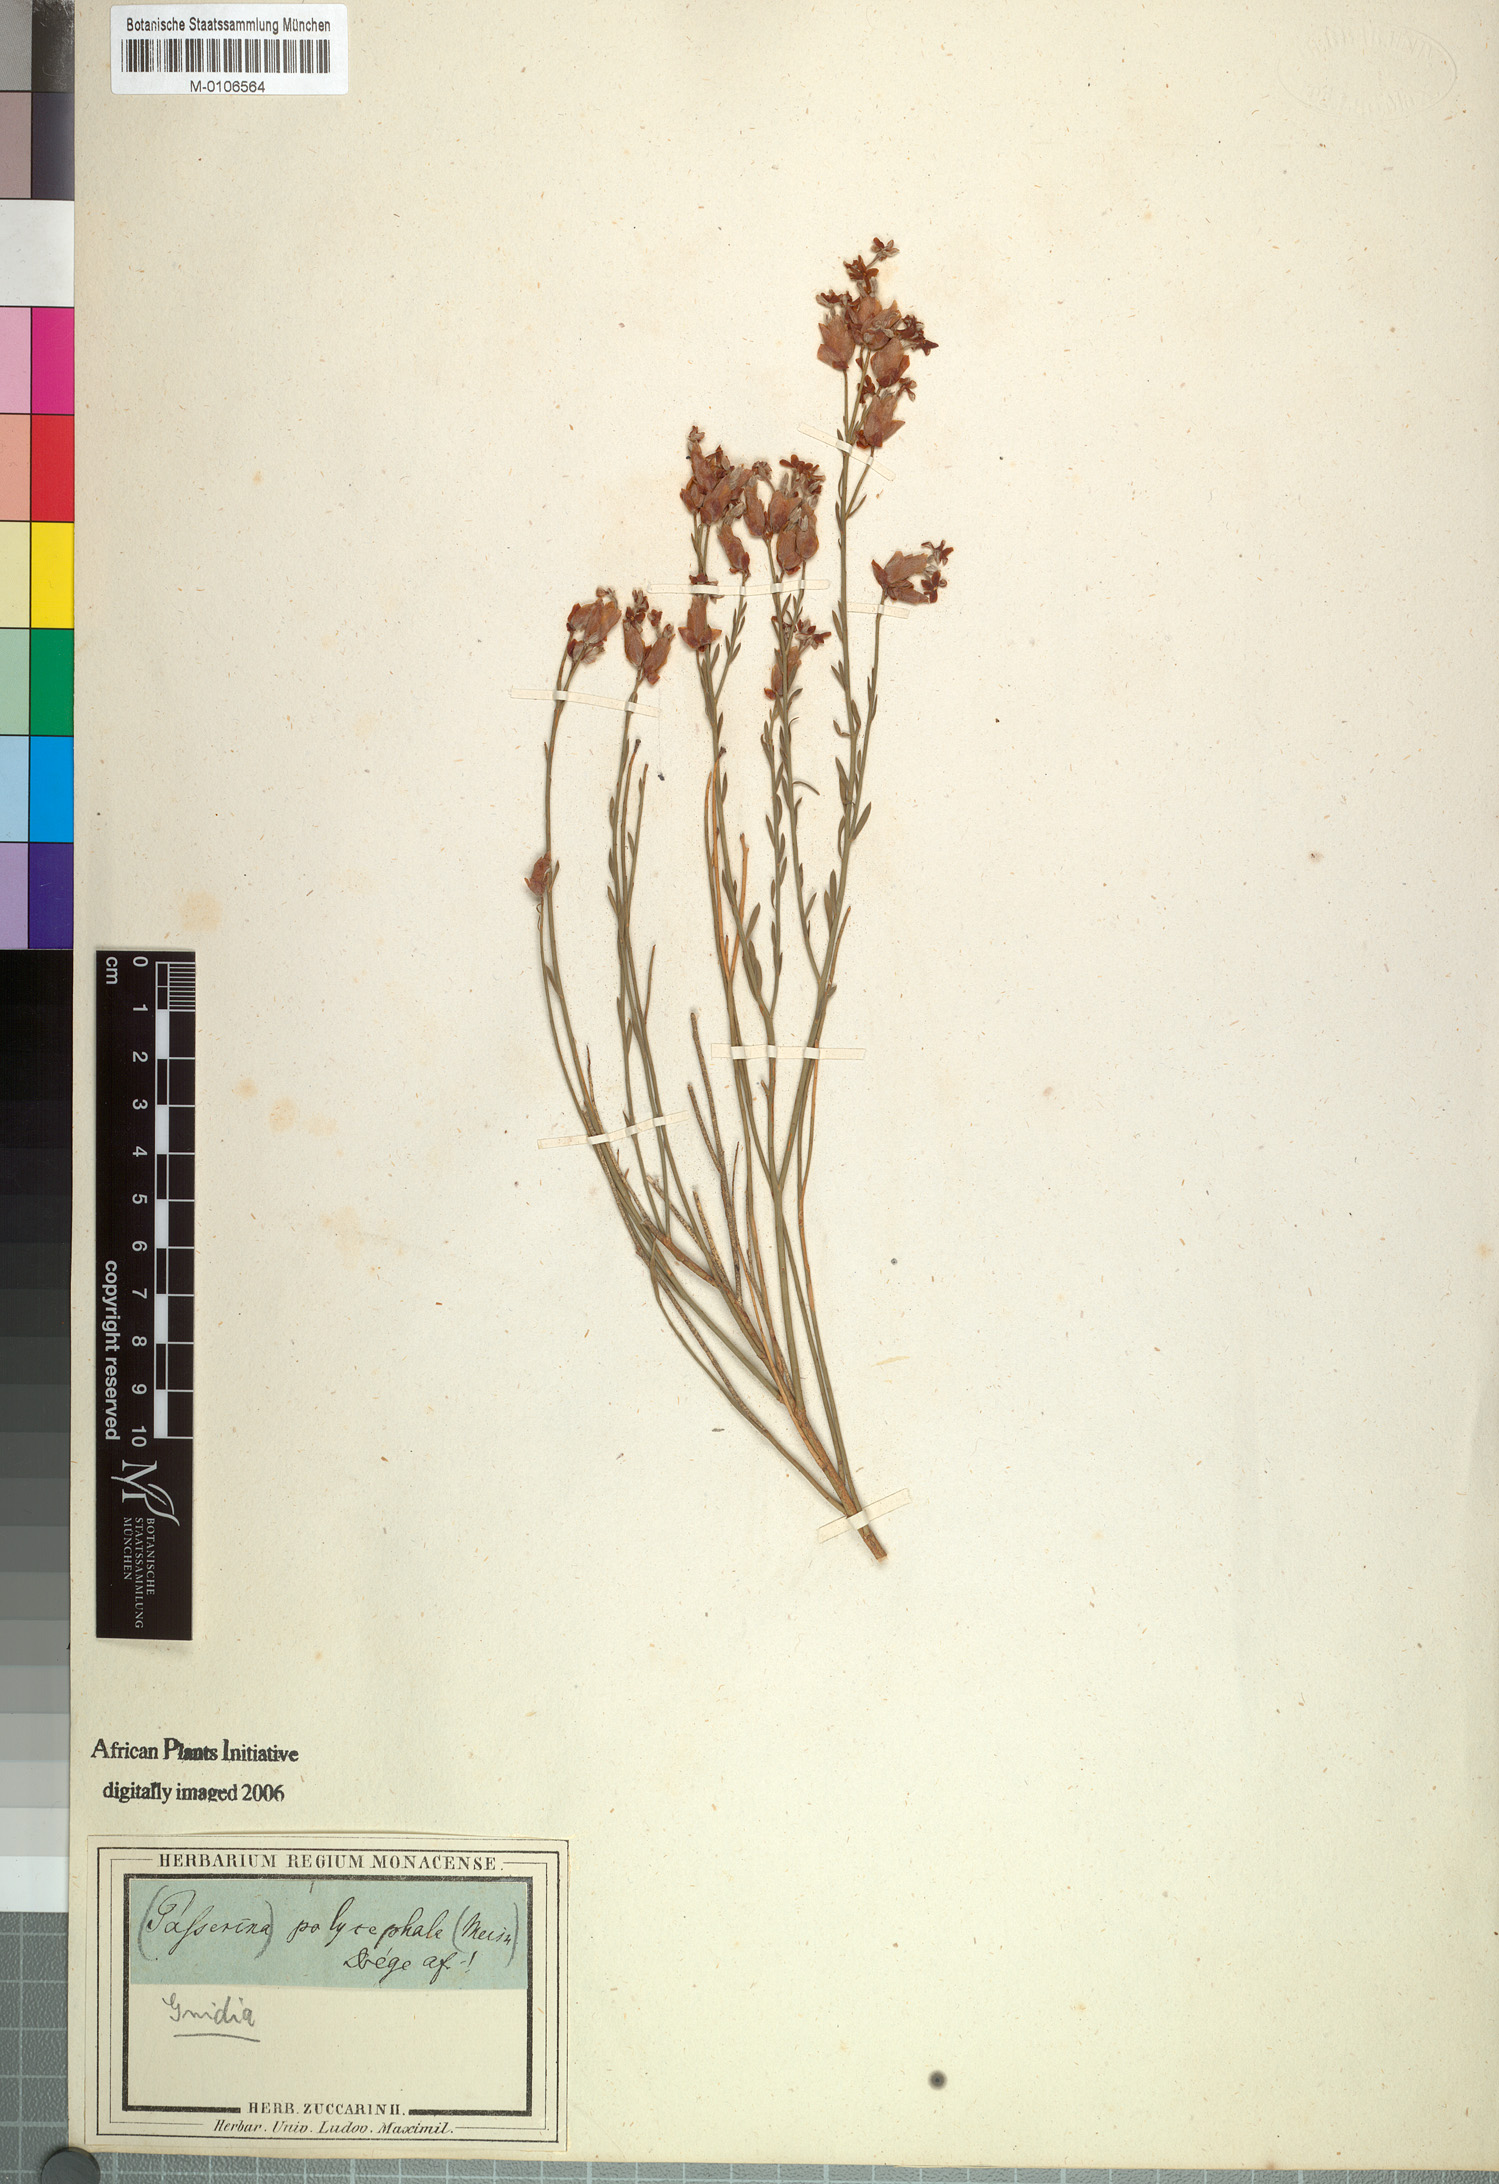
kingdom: Plantae
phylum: Tracheophyta
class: Magnoliopsida
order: Malvales
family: Thymelaeaceae
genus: Gnidia
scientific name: Gnidia polycephala
